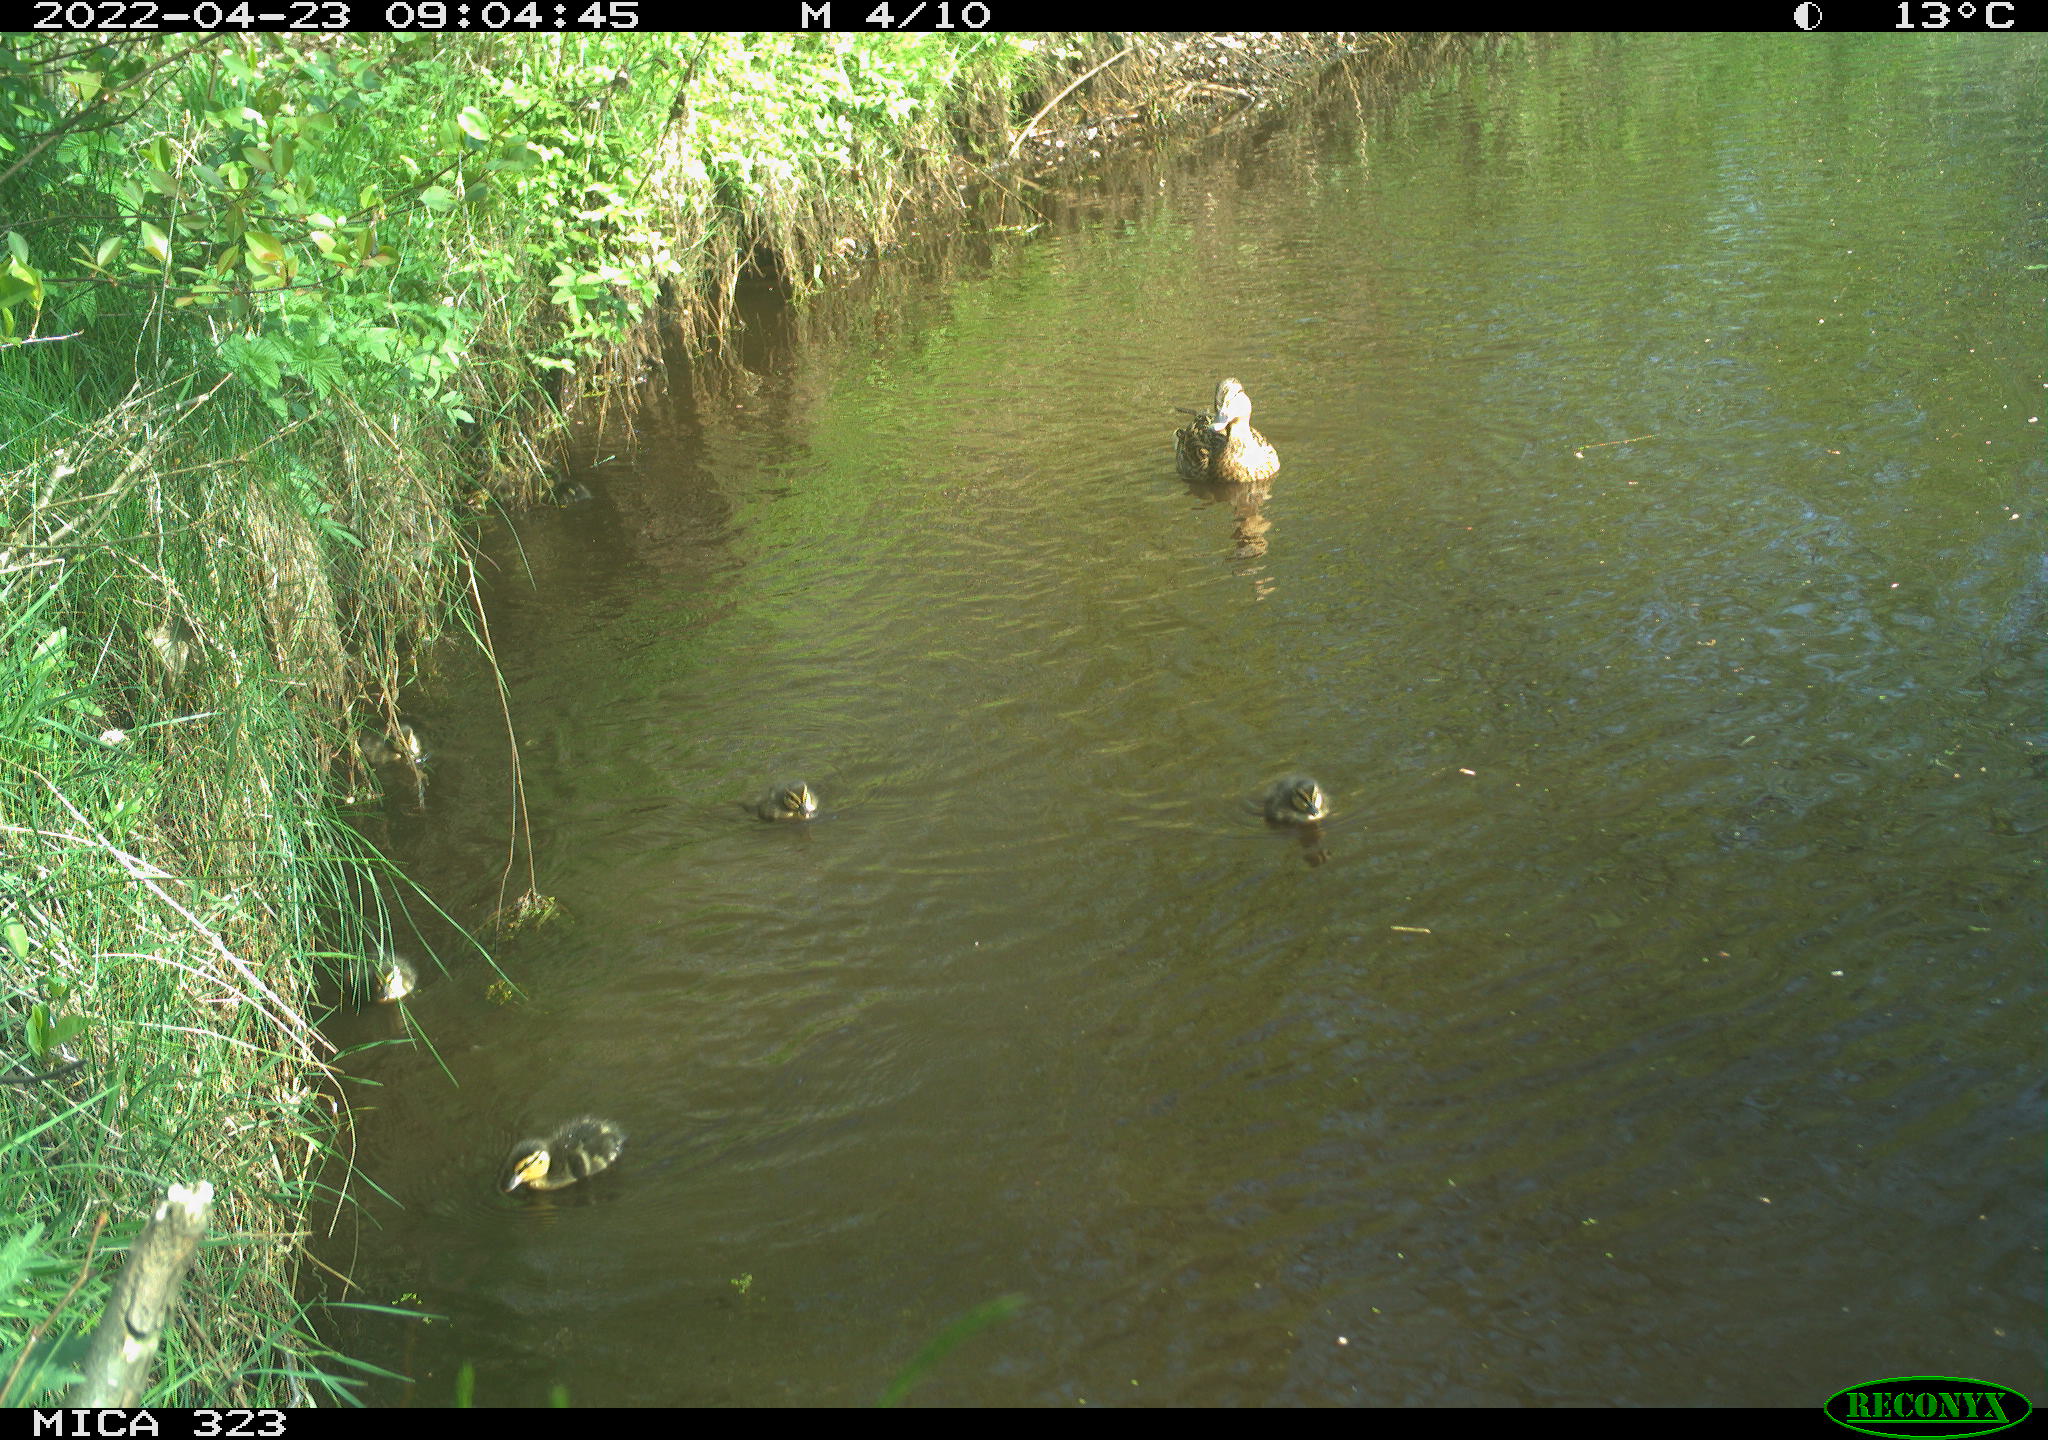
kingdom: Animalia
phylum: Chordata
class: Aves
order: Anseriformes
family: Anatidae
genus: Anas
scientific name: Anas platyrhynchos
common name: Mallard
